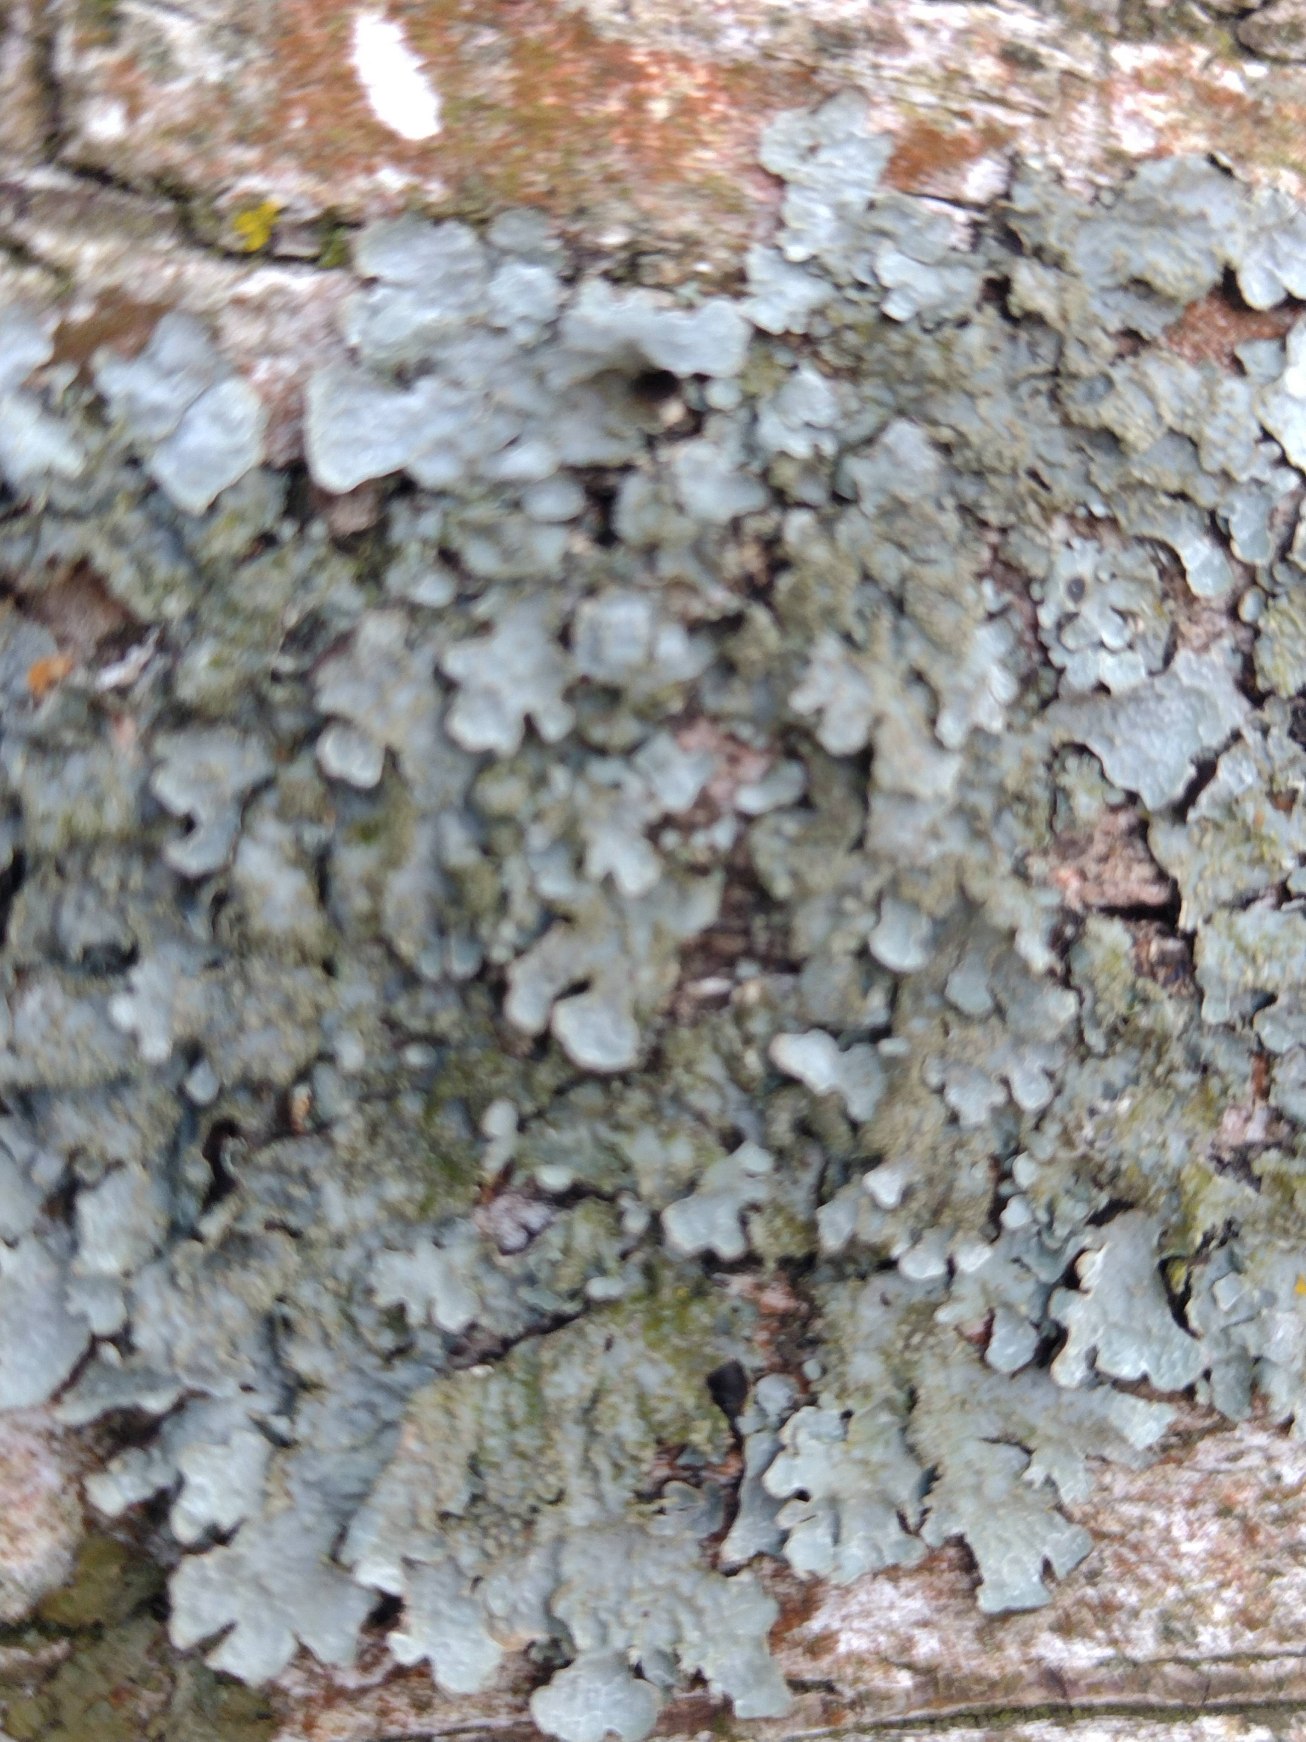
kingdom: Fungi
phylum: Ascomycota
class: Lecanoromycetes
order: Lecanorales
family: Parmeliaceae
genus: Parmelia
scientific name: Parmelia sulcata
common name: Rynket skållav
